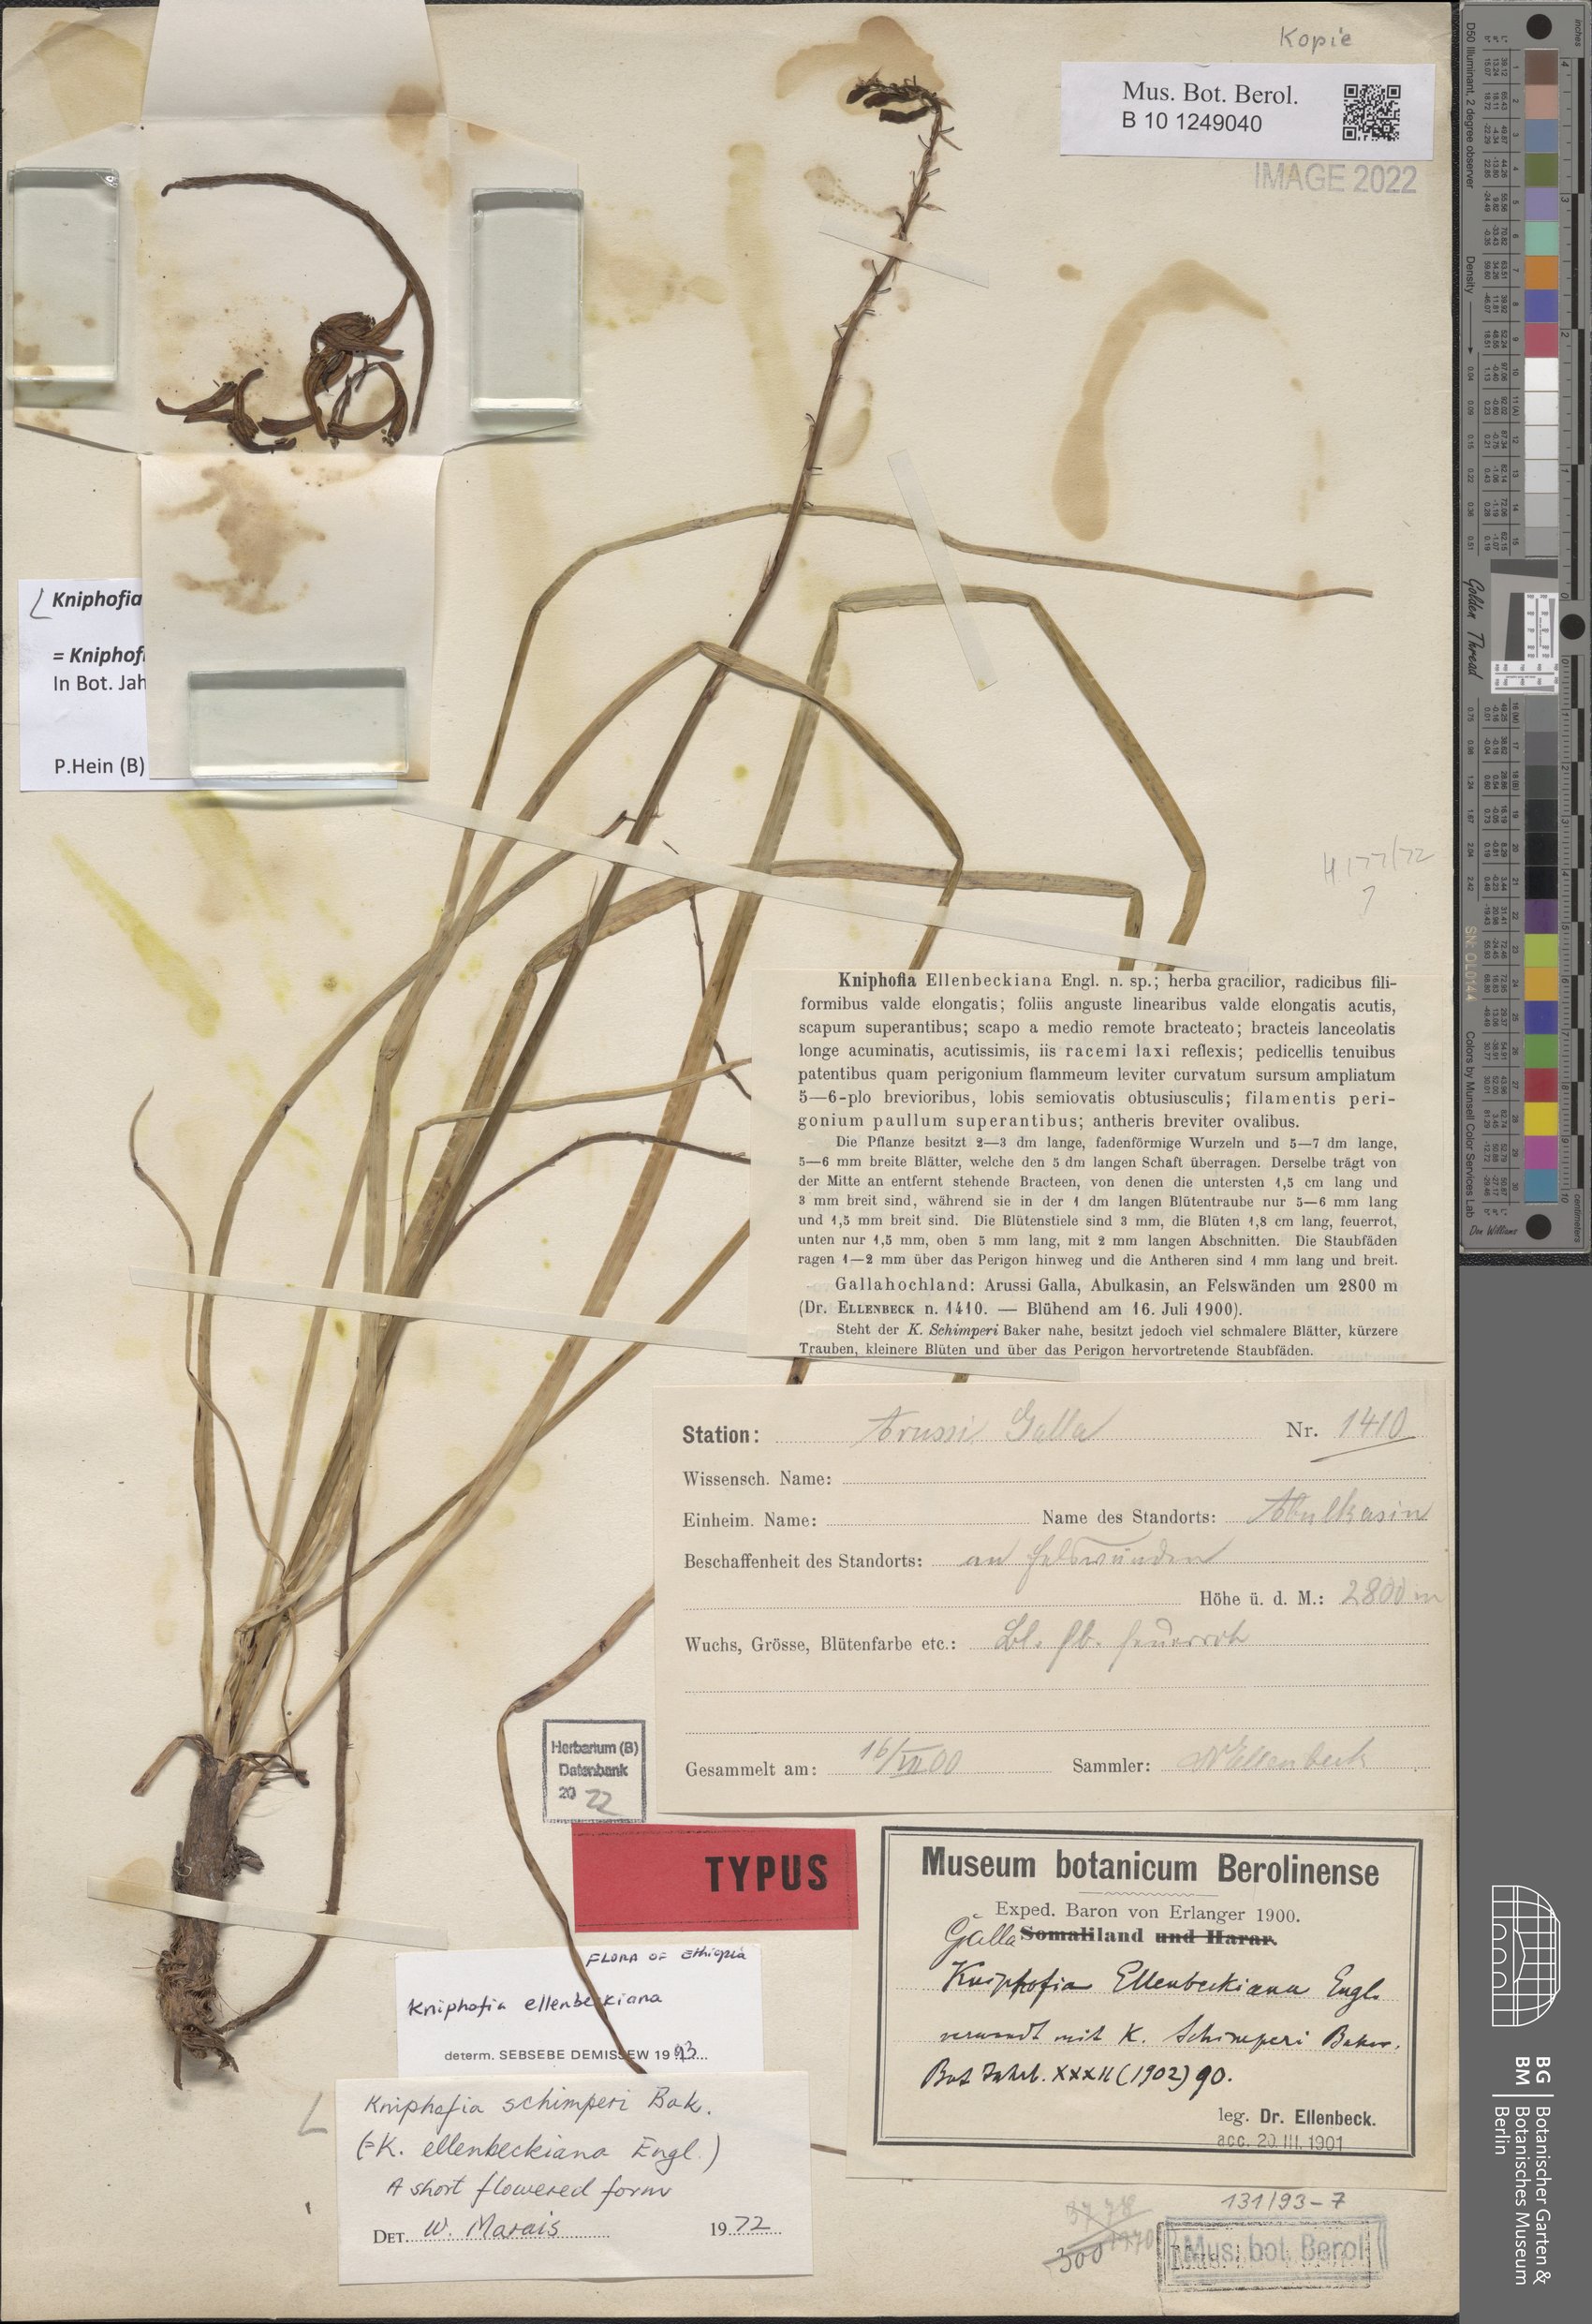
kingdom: Plantae
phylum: Tracheophyta
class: Liliopsida
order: Asparagales
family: Asphodelaceae
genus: Kniphofia
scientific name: Kniphofia schimperi
